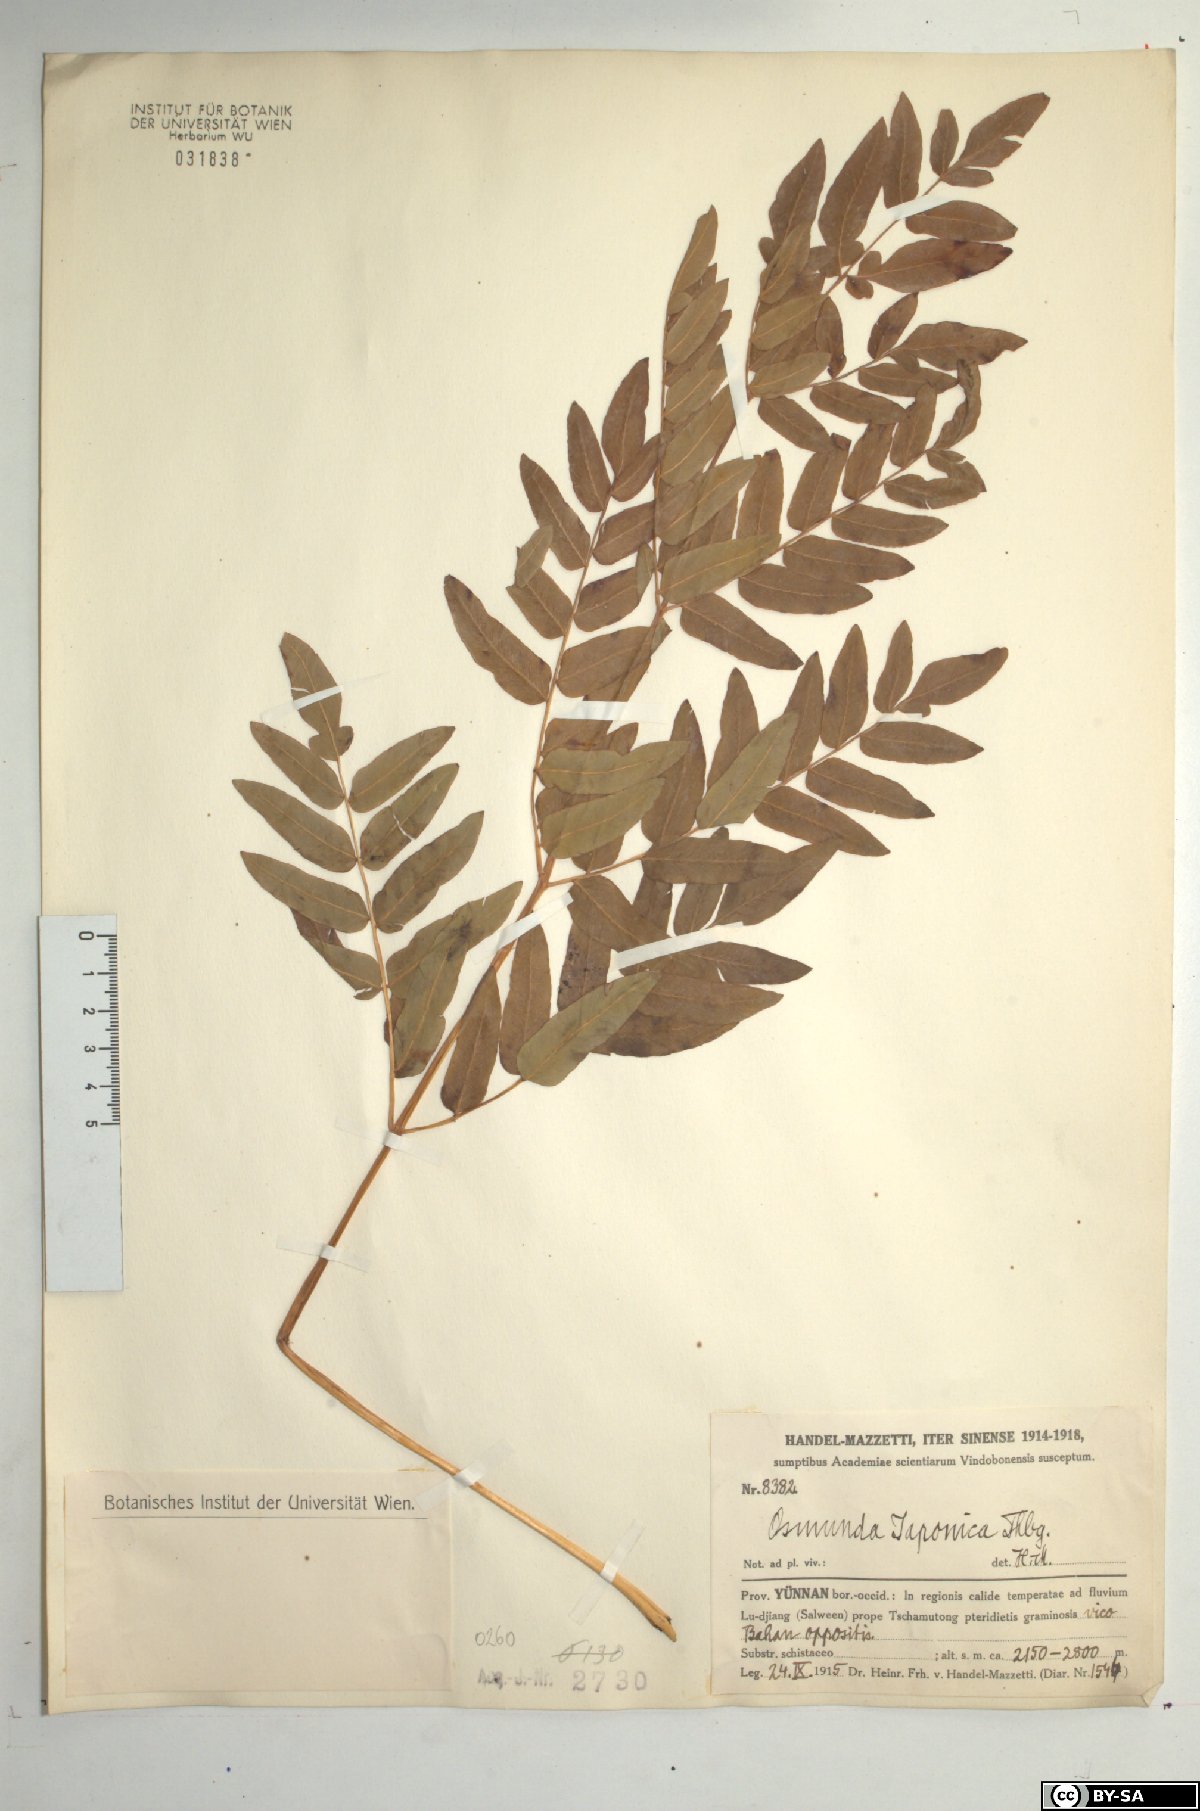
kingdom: Plantae
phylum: Tracheophyta
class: Polypodiopsida
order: Osmundales
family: Osmundaceae
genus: Osmunda
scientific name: Osmunda japonica
